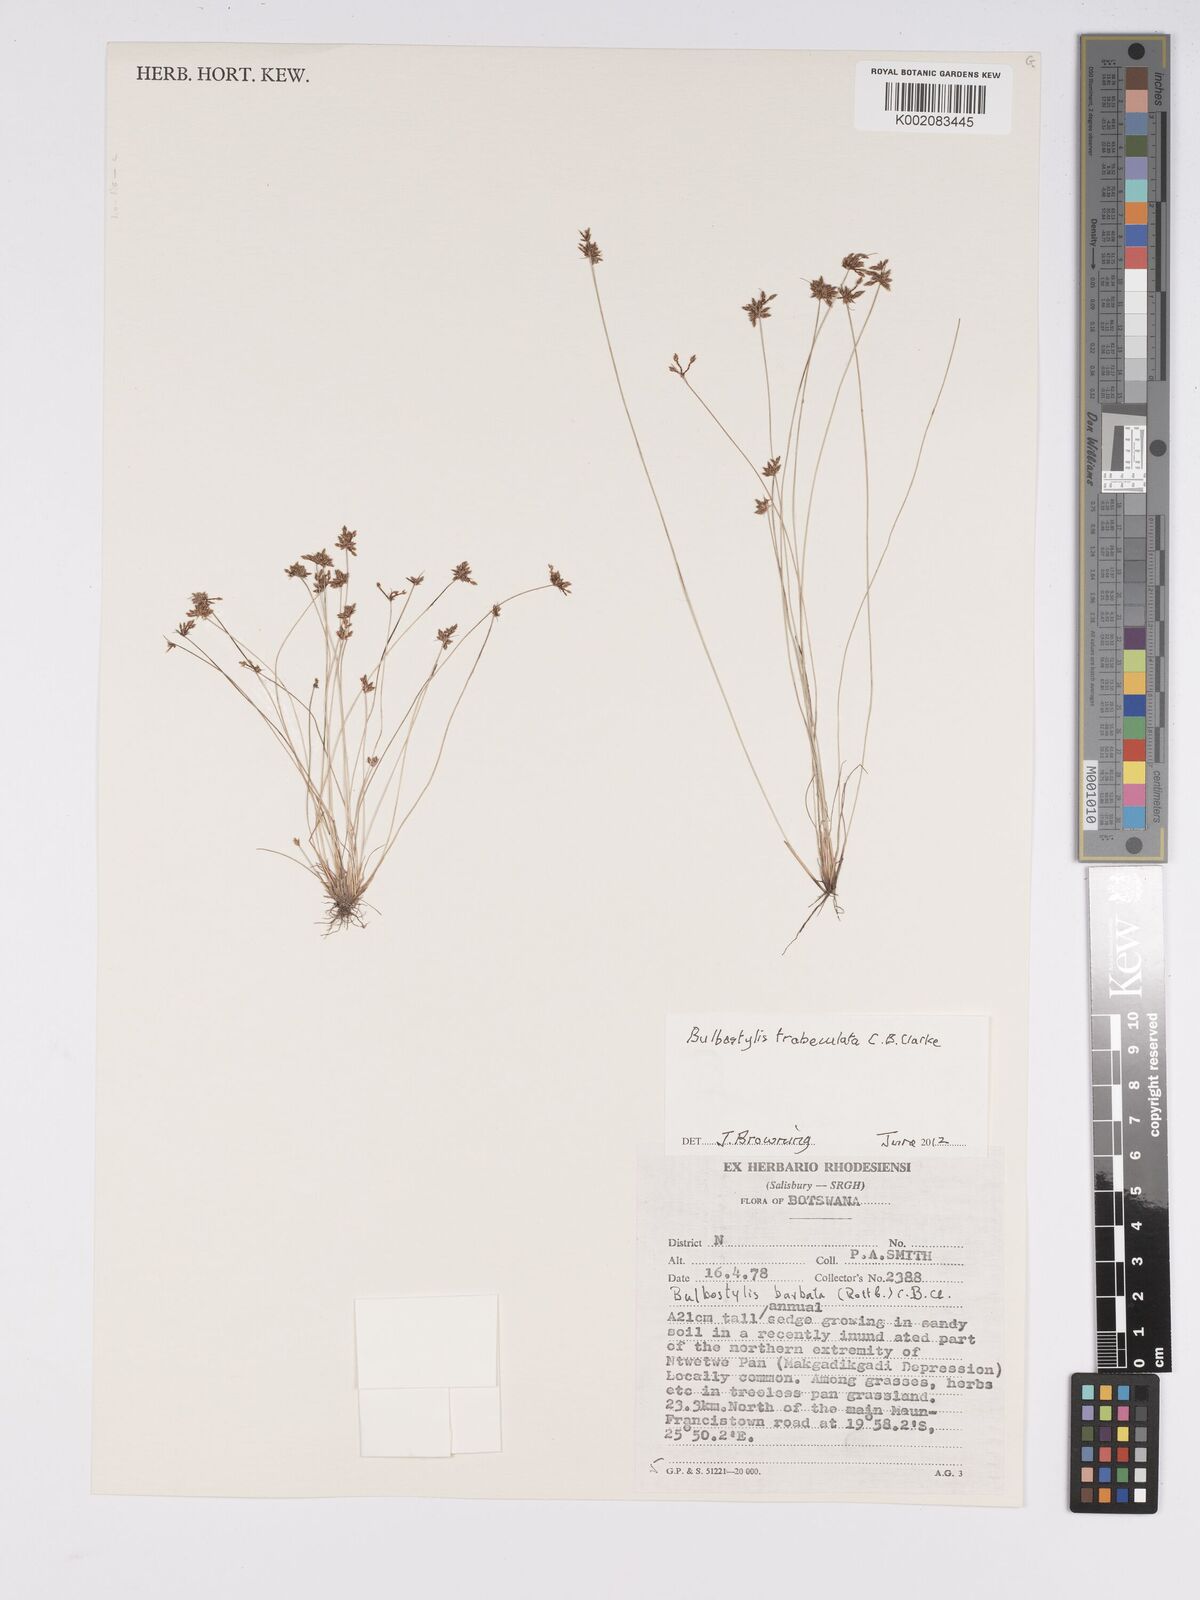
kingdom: Plantae
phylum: Tracheophyta
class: Liliopsida
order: Poales
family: Cyperaceae
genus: Bulbostylis
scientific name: Bulbostylis trabeculata
